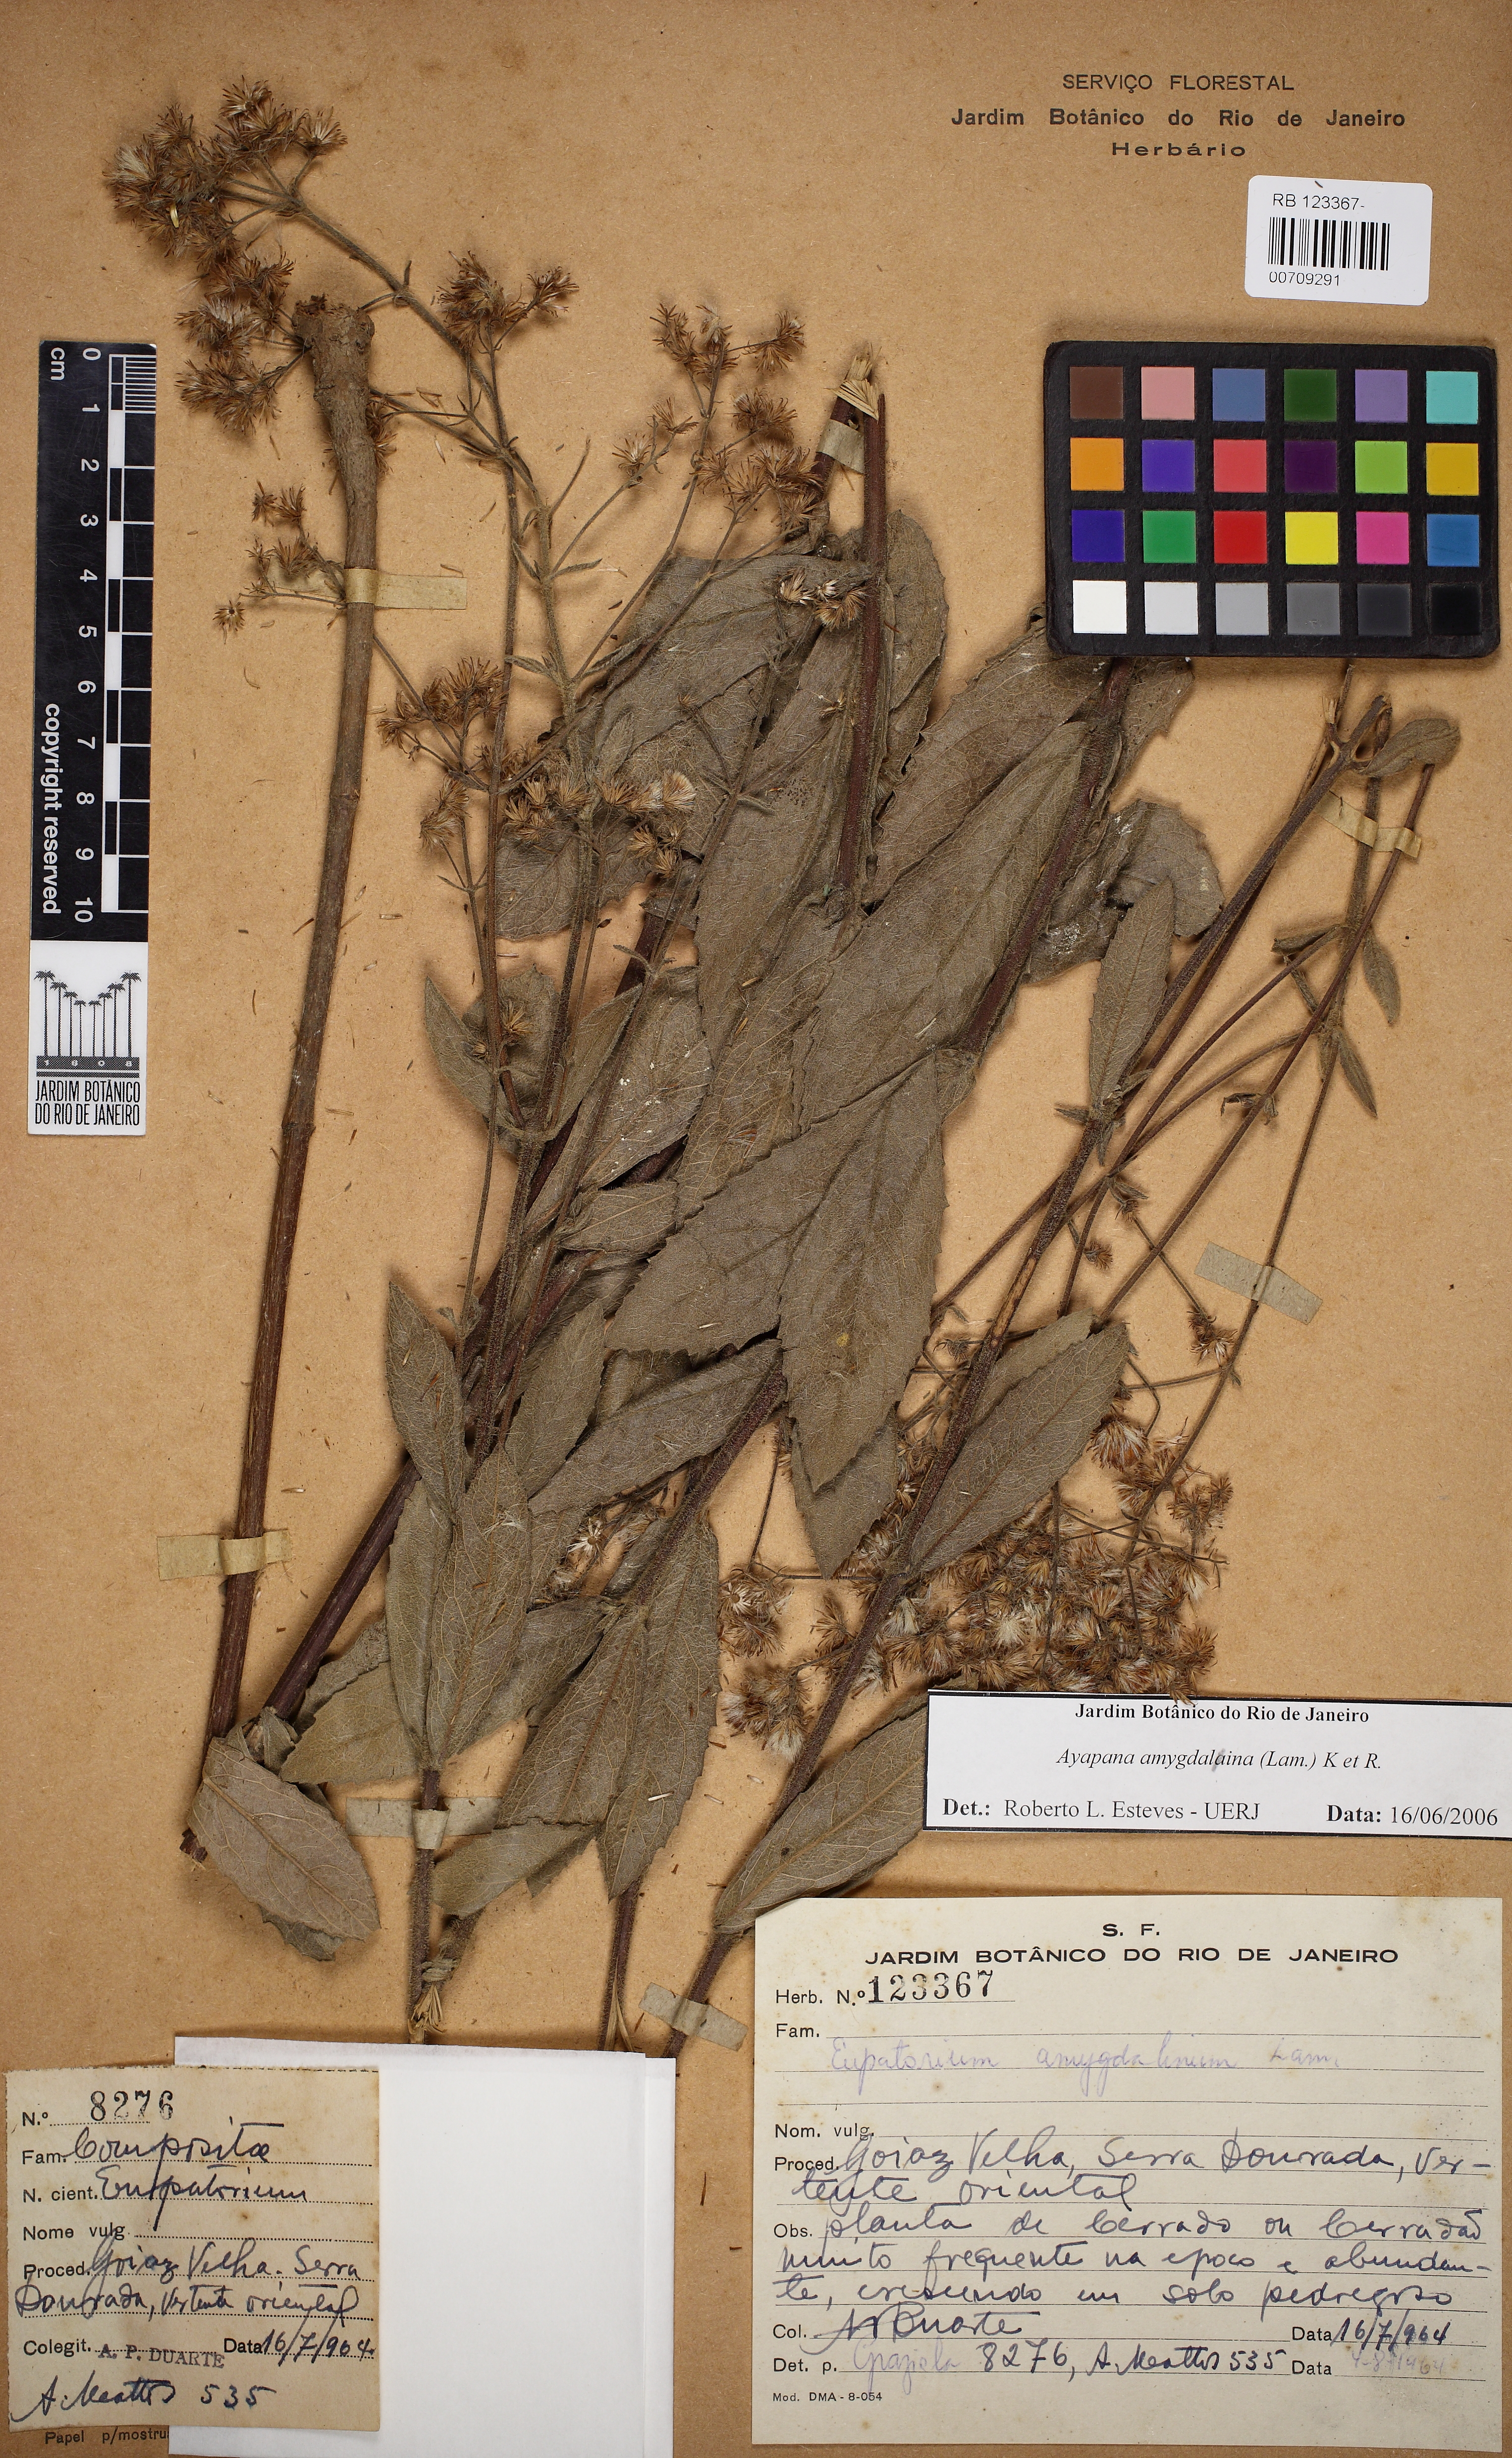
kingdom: Plantae
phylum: Tracheophyta
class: Magnoliopsida
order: Asterales
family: Asteraceae
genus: Ayapana
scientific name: Ayapana amygdalina
